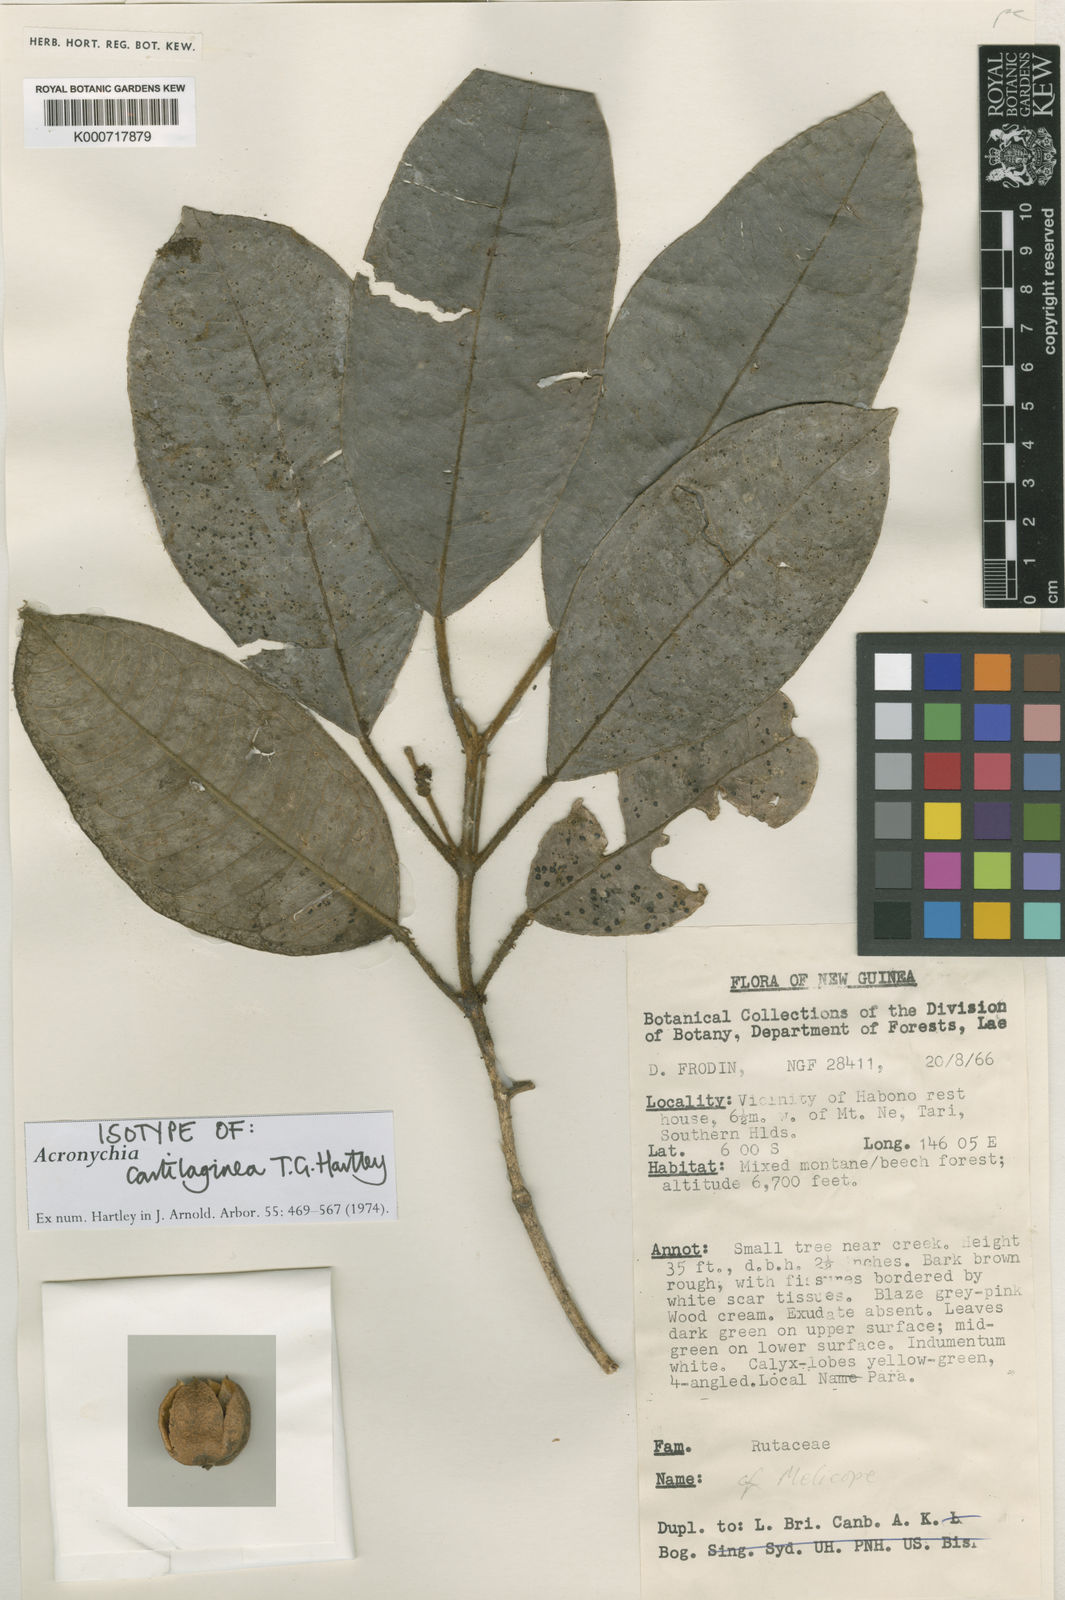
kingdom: Plantae
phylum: Tracheophyta
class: Magnoliopsida
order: Sapindales
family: Rutaceae
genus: Acronychia
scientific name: Acronychia
